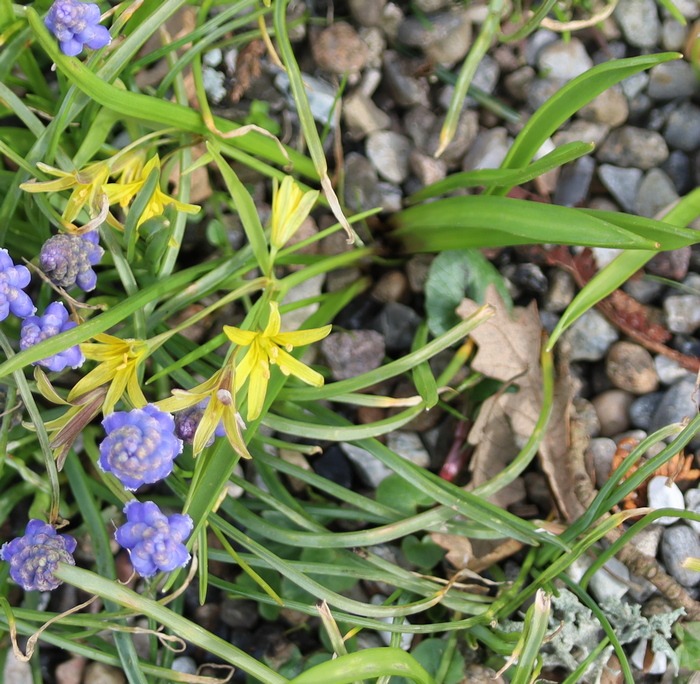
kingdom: Plantae
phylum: Tracheophyta
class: Liliopsida
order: Liliales
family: Liliaceae
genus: Gagea
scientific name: Gagea lutea
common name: Almindelig guldstjerne
